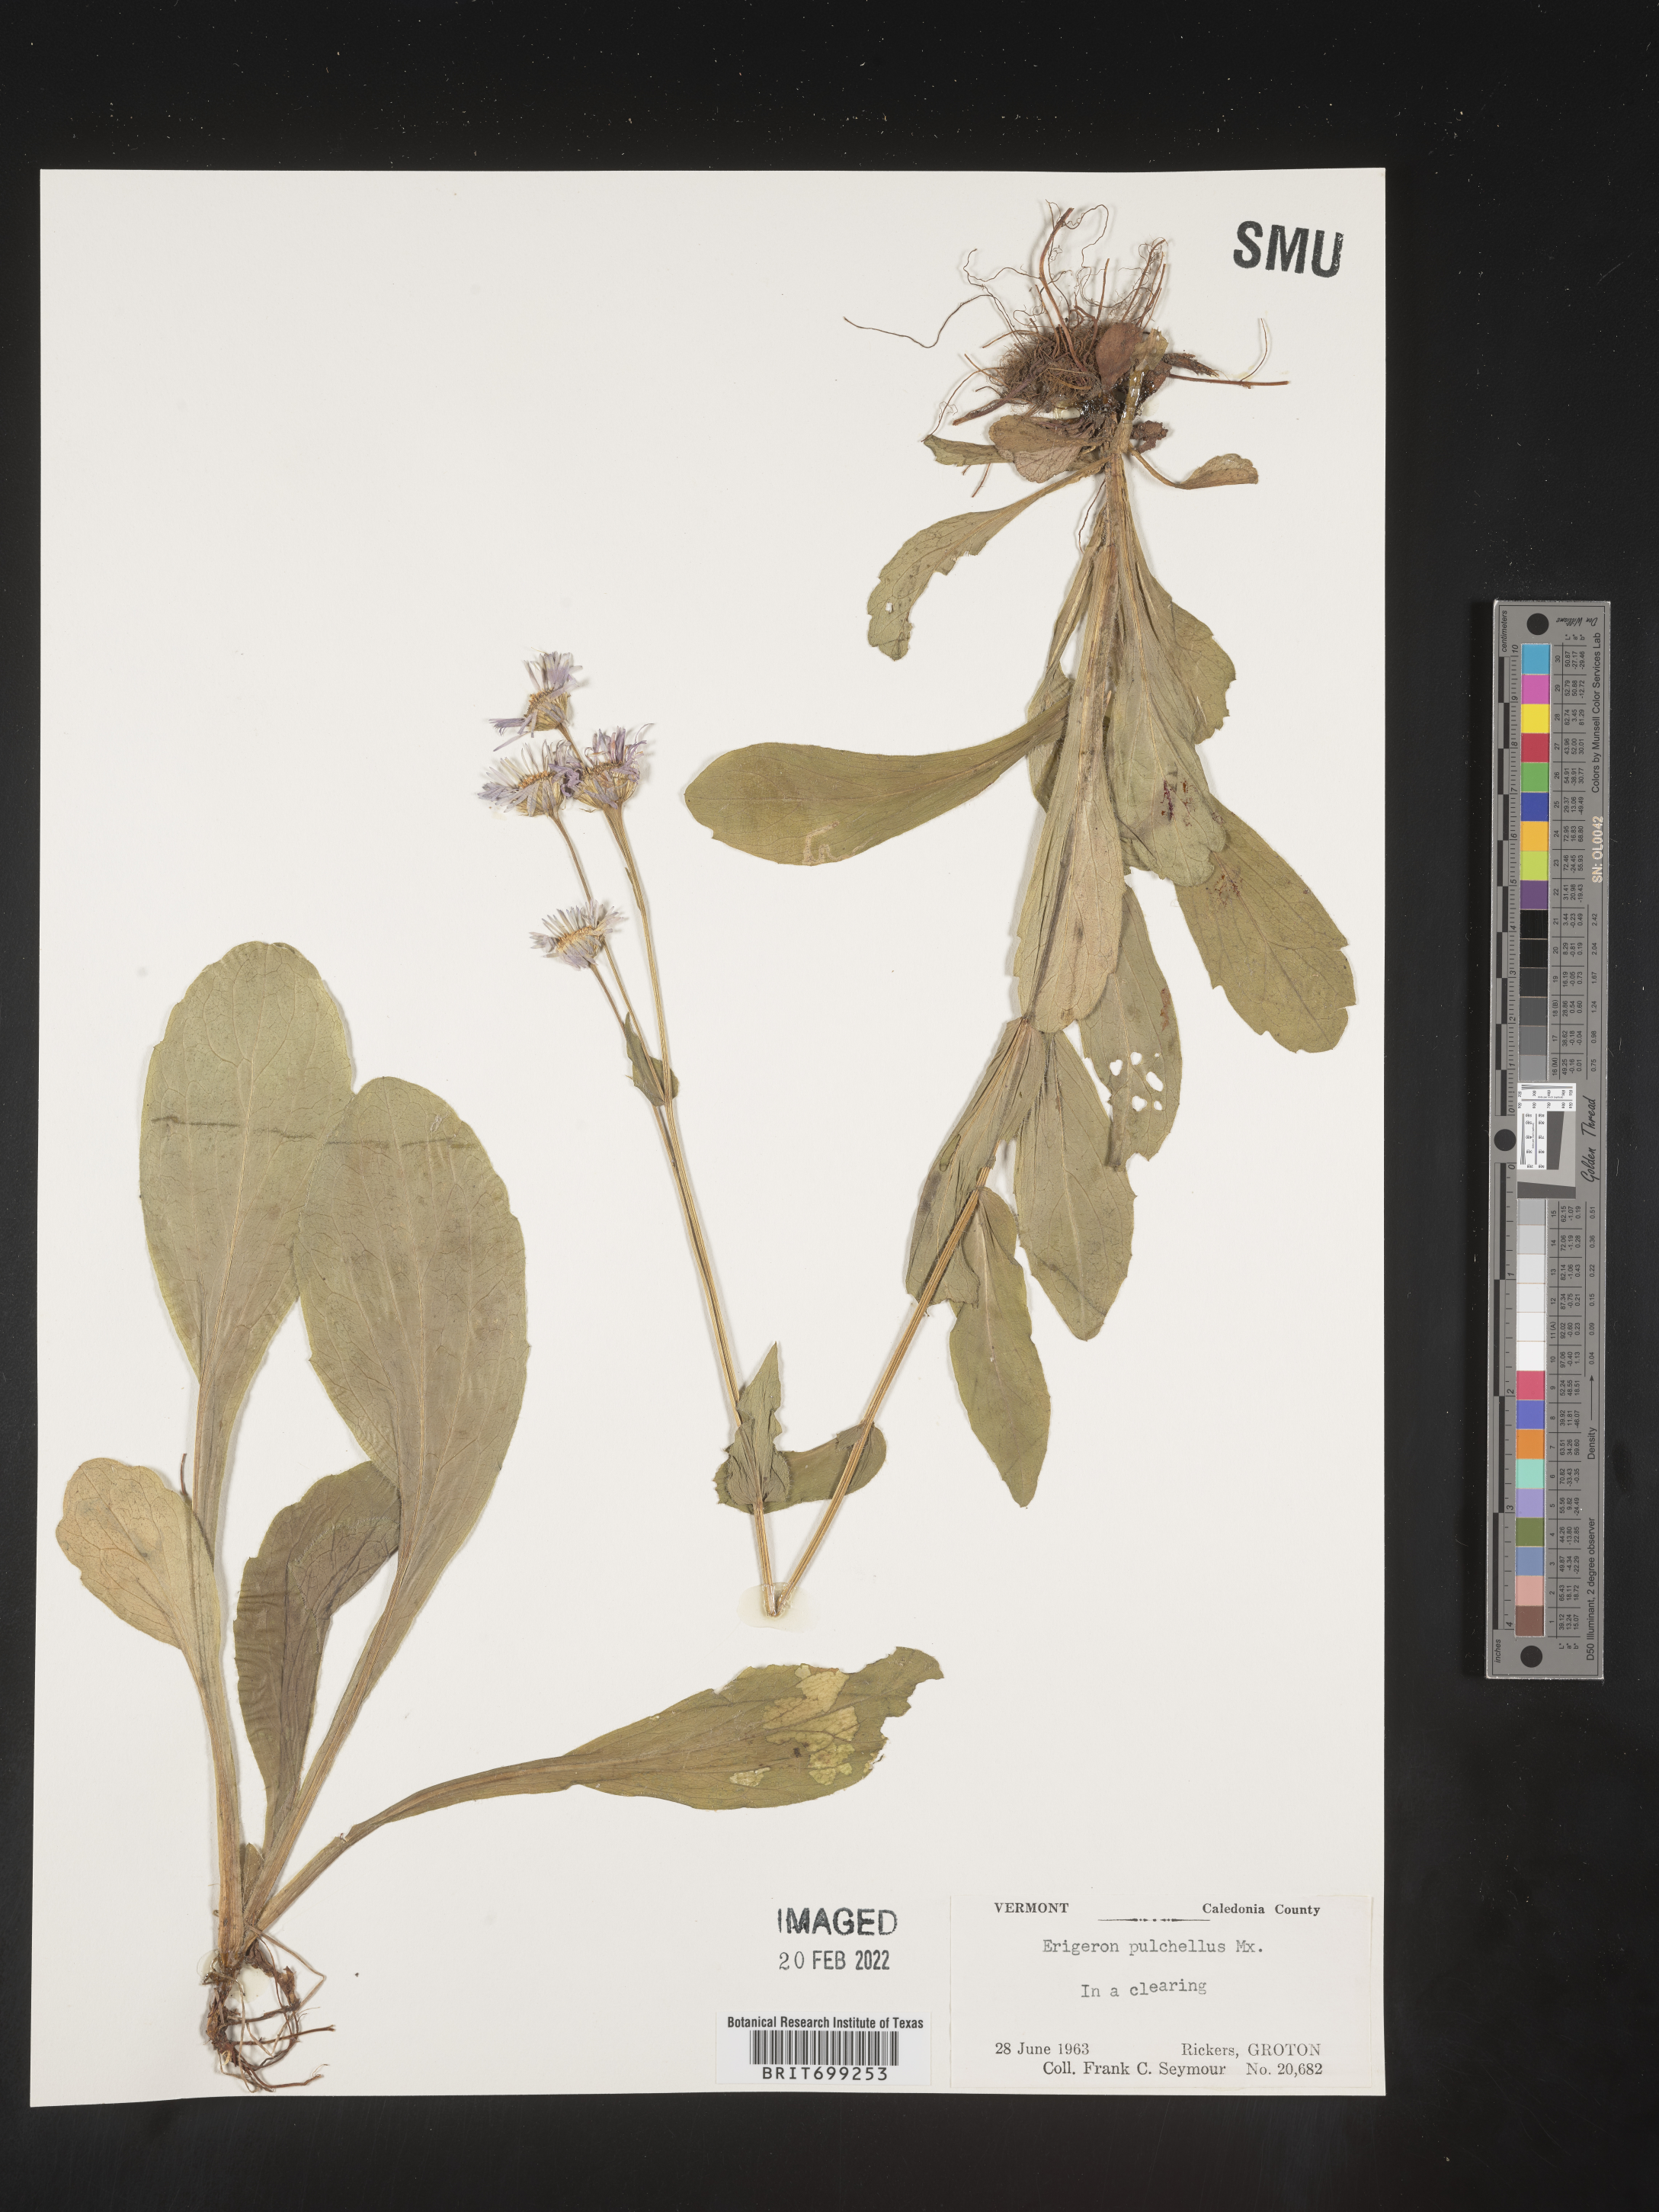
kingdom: Plantae
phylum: Tracheophyta
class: Magnoliopsida
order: Asterales
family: Asteraceae
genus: Erigeron
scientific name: Erigeron pulchellus
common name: Hairy fleabane
